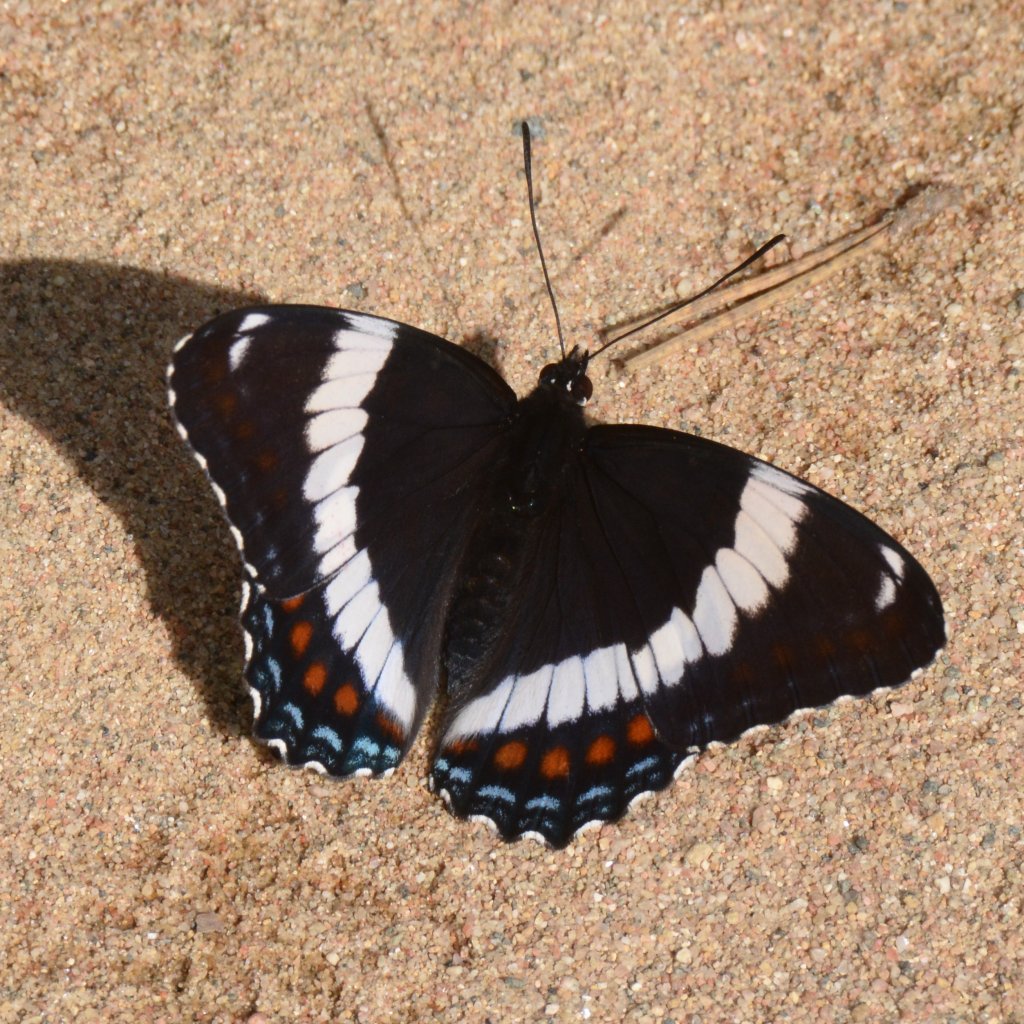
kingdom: Animalia
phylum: Arthropoda
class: Insecta
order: Lepidoptera
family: Nymphalidae
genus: Limenitis
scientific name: Limenitis arthemis
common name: Red-spotted Admiral
